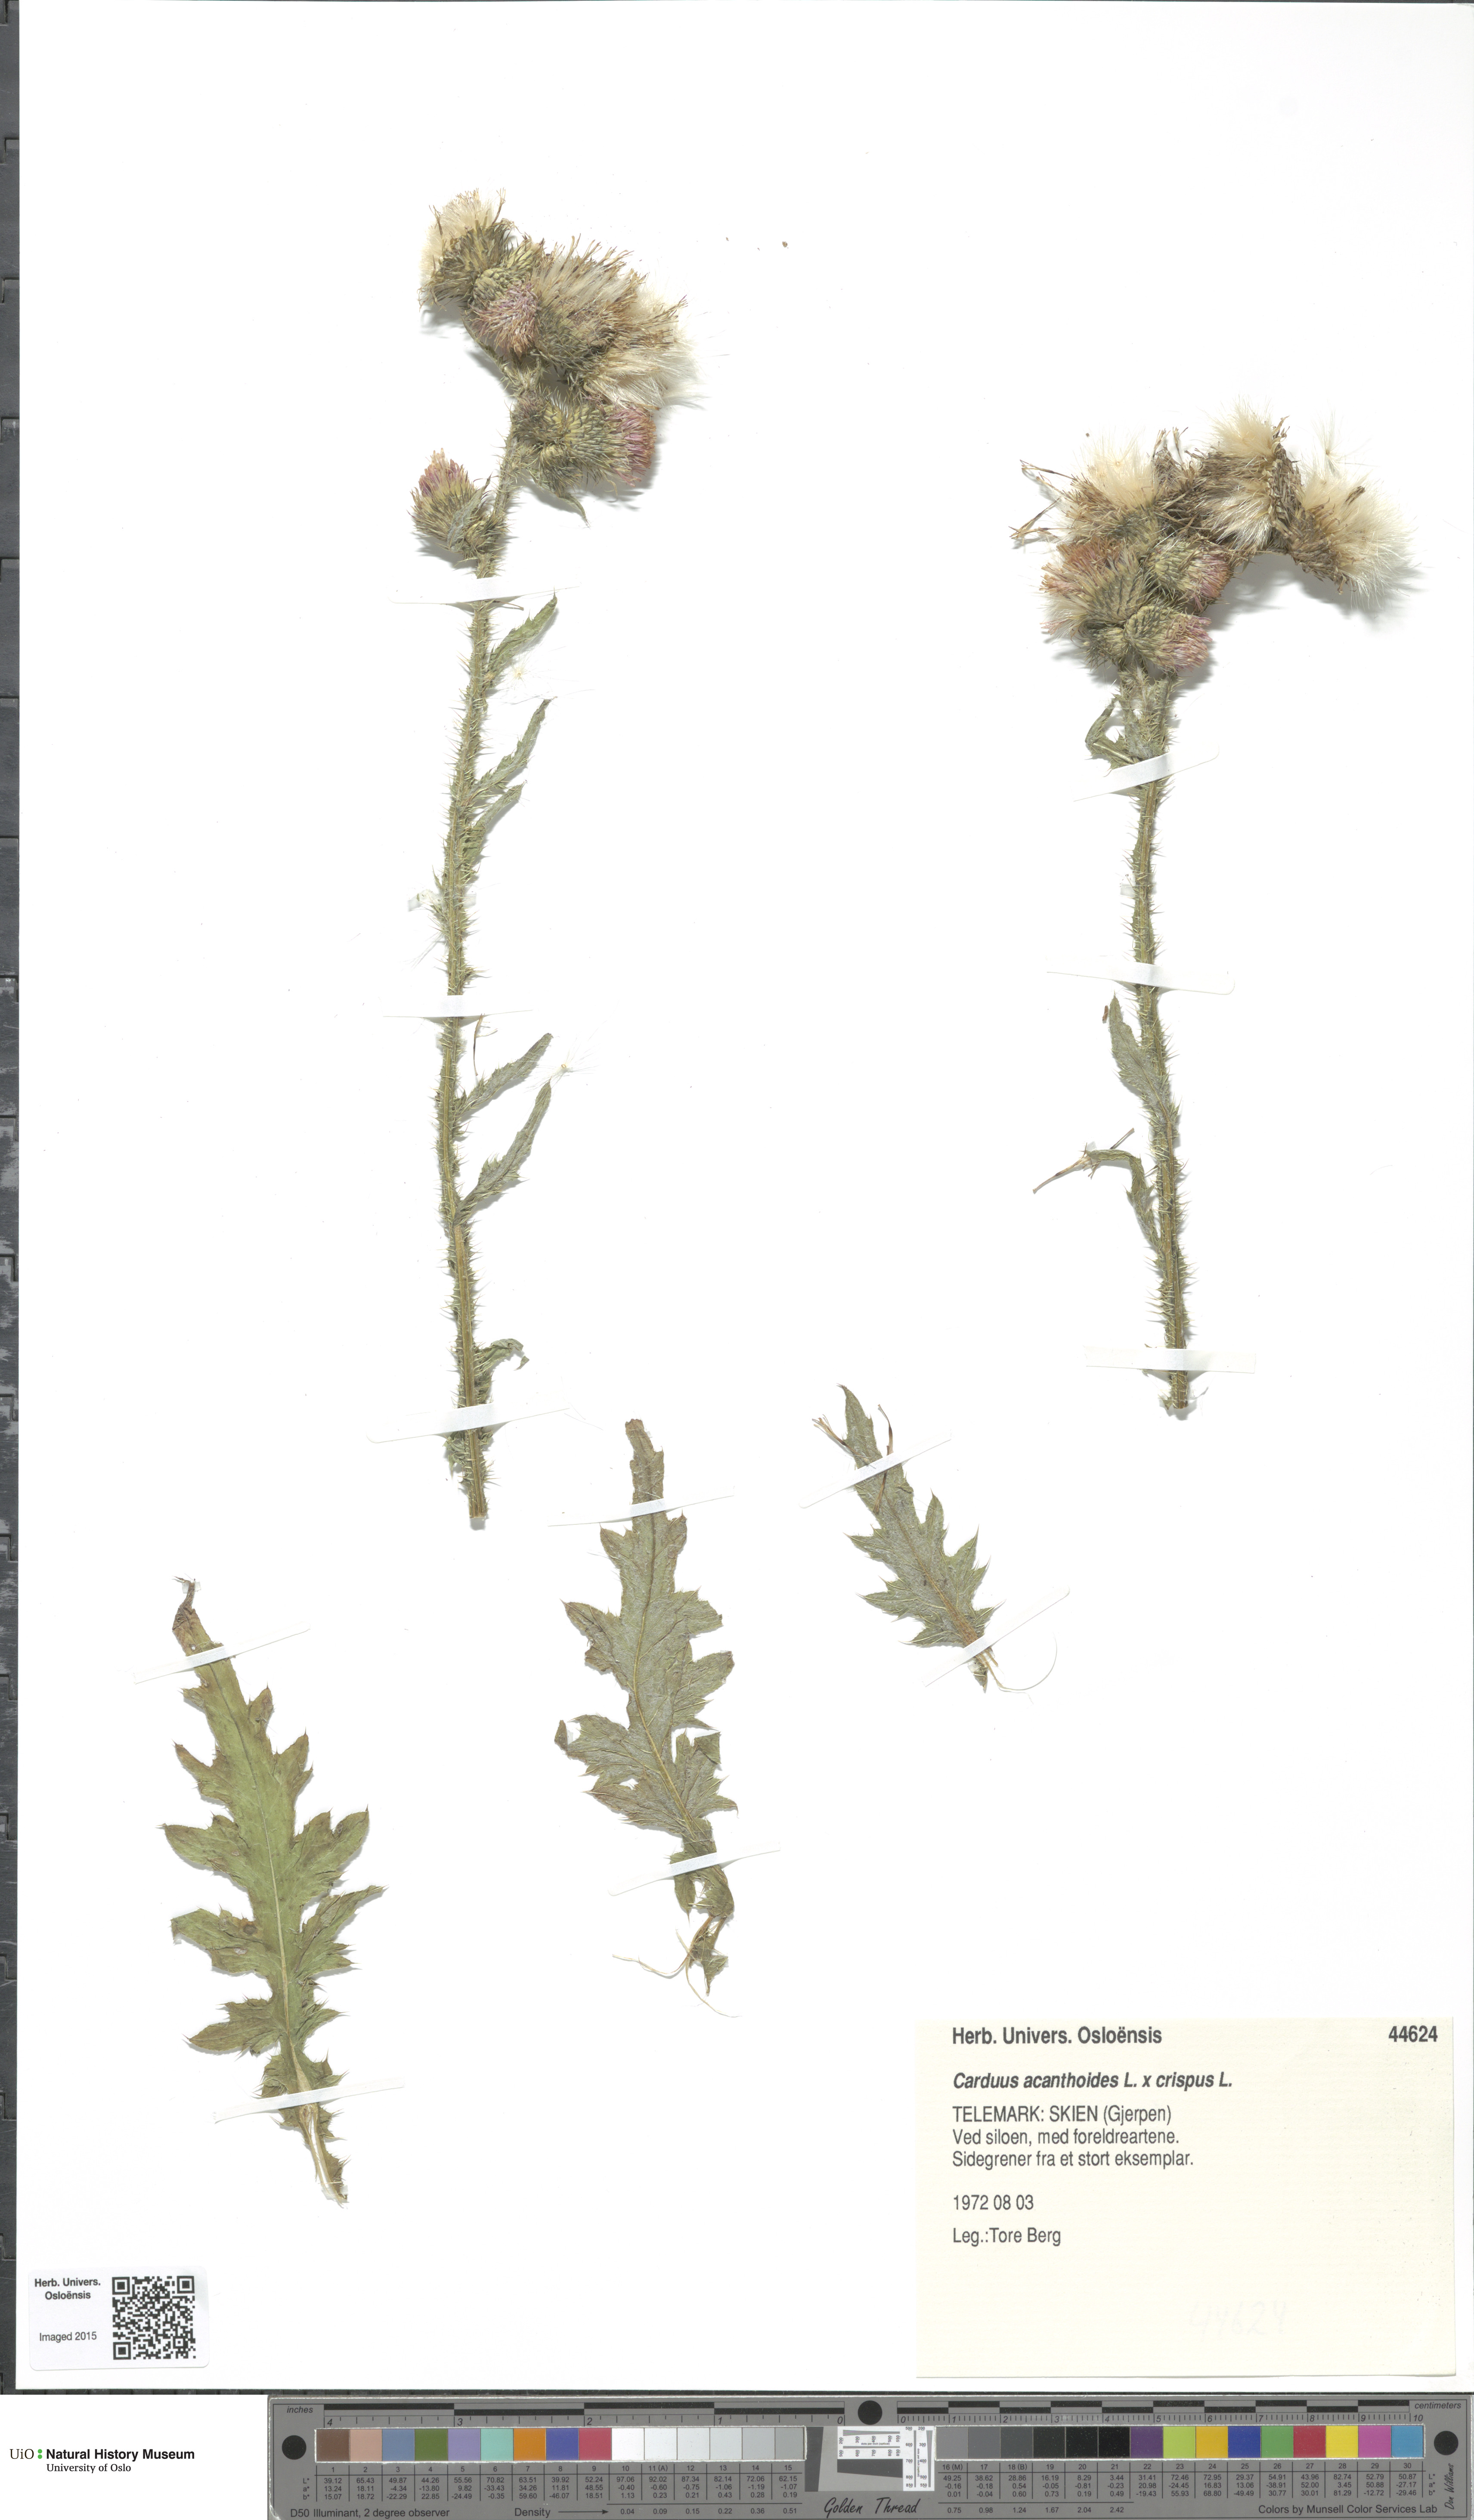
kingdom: Plantae
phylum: Tracheophyta
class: Magnoliopsida
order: Asterales
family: Asteraceae
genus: Carduus
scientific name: Carduus
